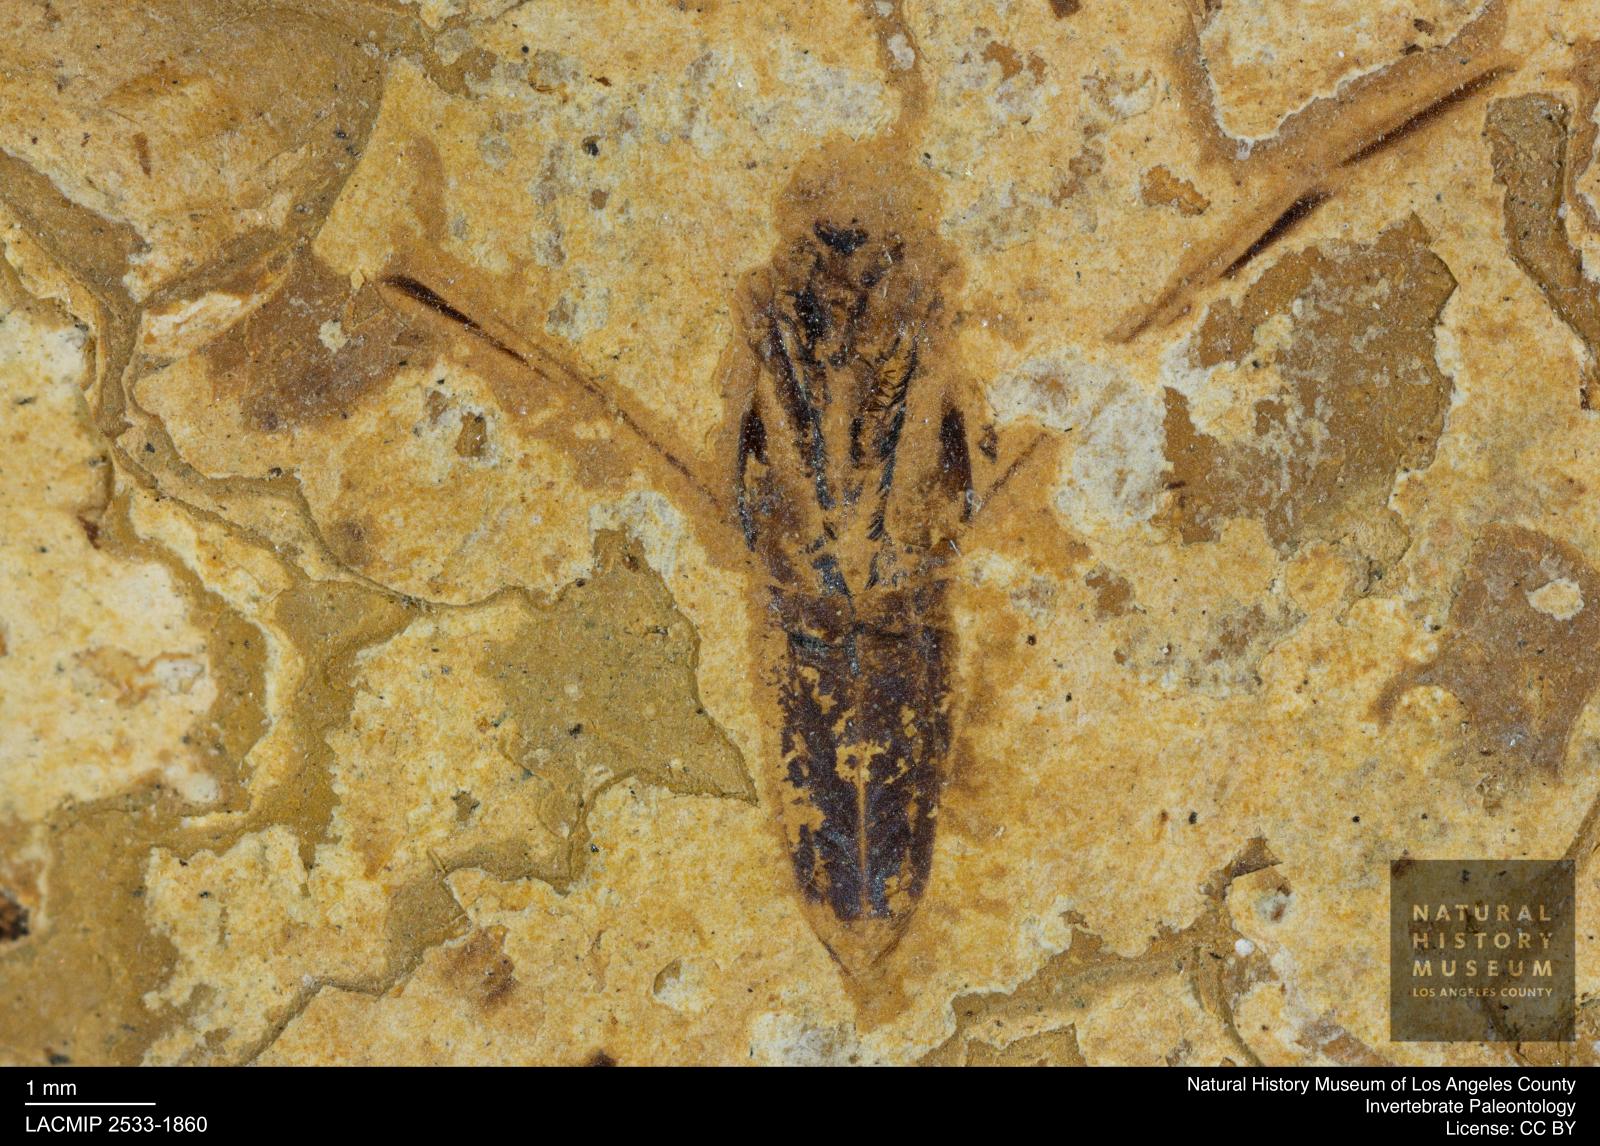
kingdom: Animalia
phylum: Arthropoda
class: Insecta
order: Hemiptera
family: Notonectidae
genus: Notonecta
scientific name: Notonecta
